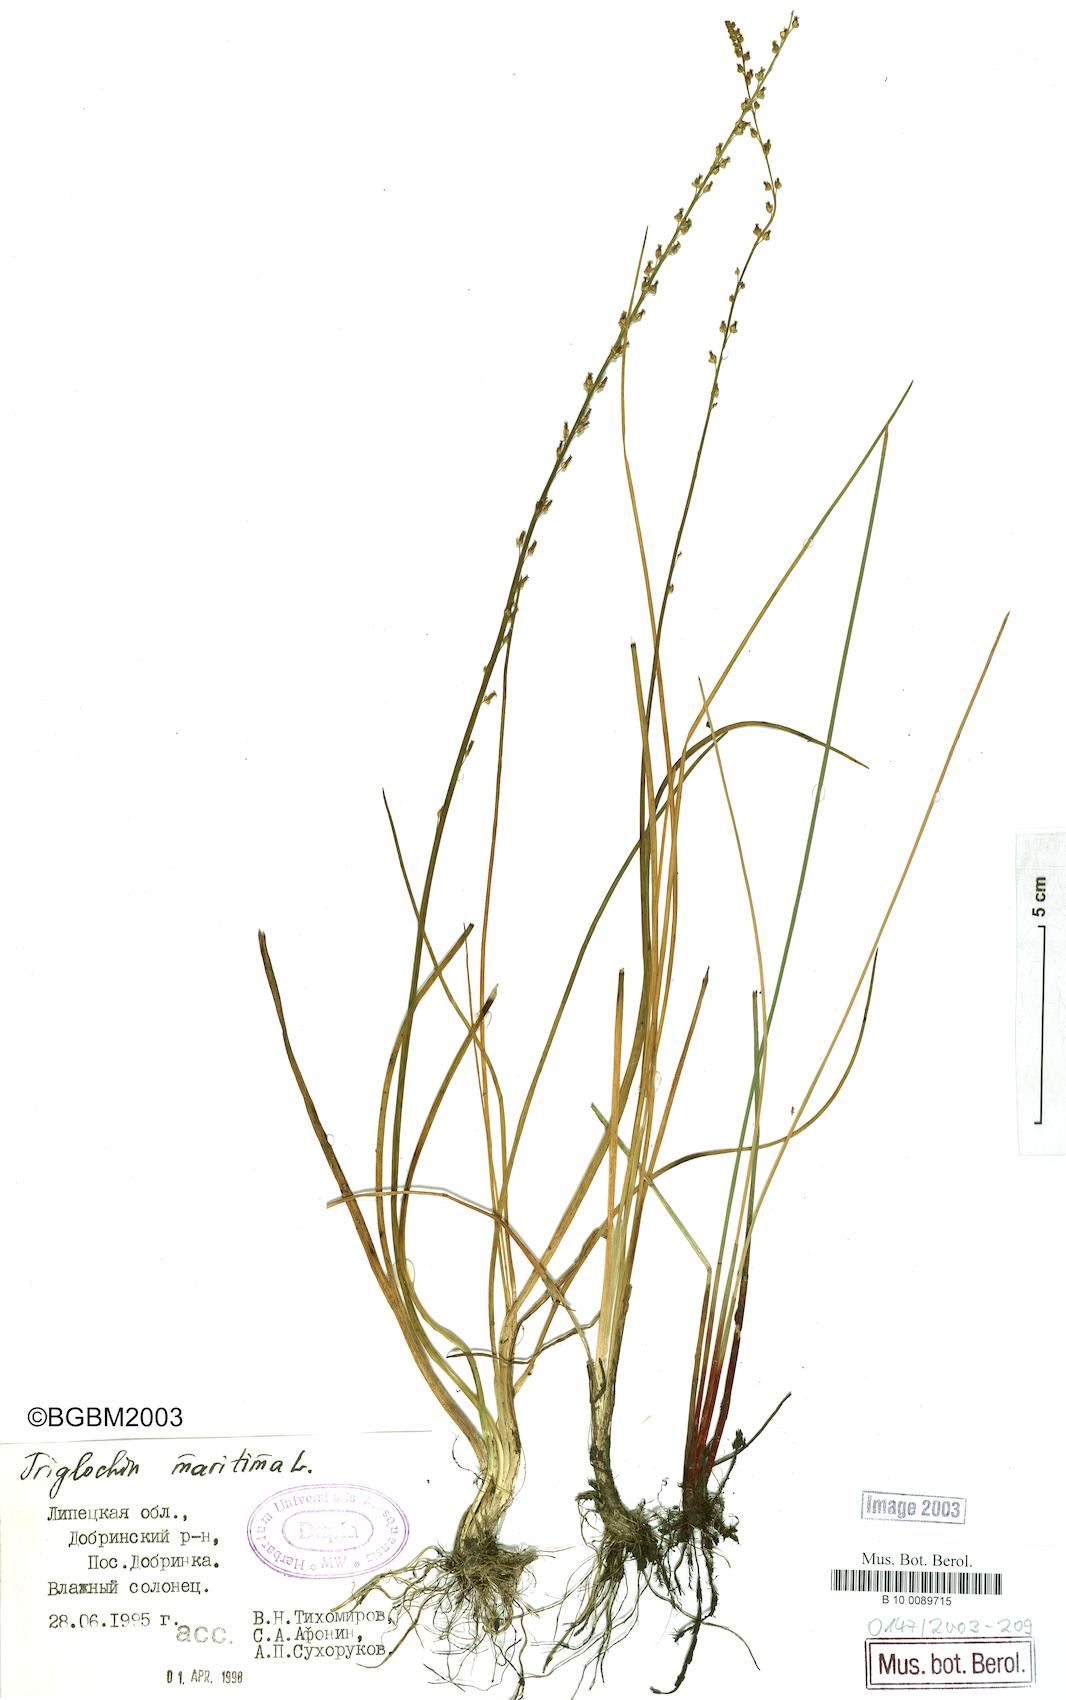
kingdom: Plantae
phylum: Tracheophyta
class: Liliopsida
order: Alismatales
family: Juncaginaceae
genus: Triglochin
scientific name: Triglochin maritima
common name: Sea arrowgrass
